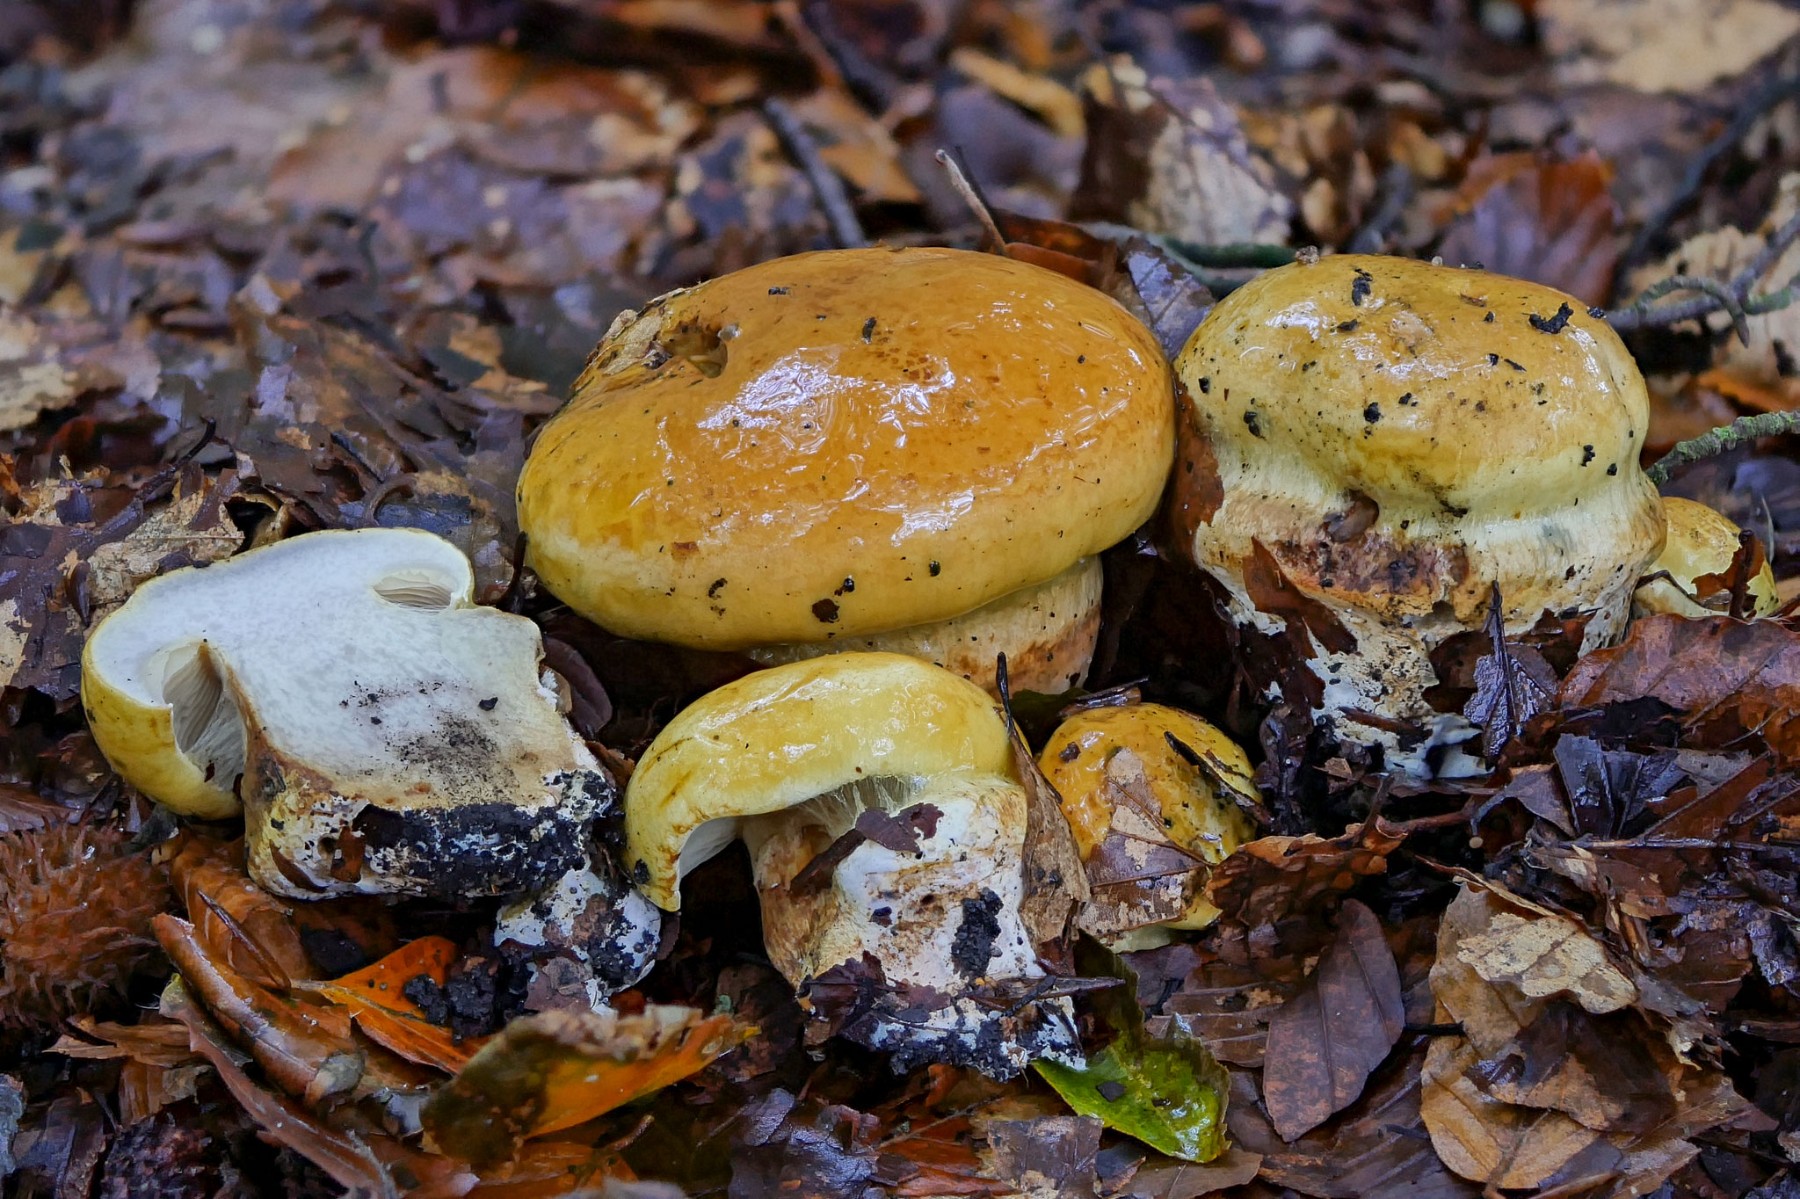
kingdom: Fungi
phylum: Basidiomycota
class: Agaricomycetes
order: Agaricales
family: Cortinariaceae
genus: Calonarius
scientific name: Calonarius elegantissimus
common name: orangegylden slørhat
